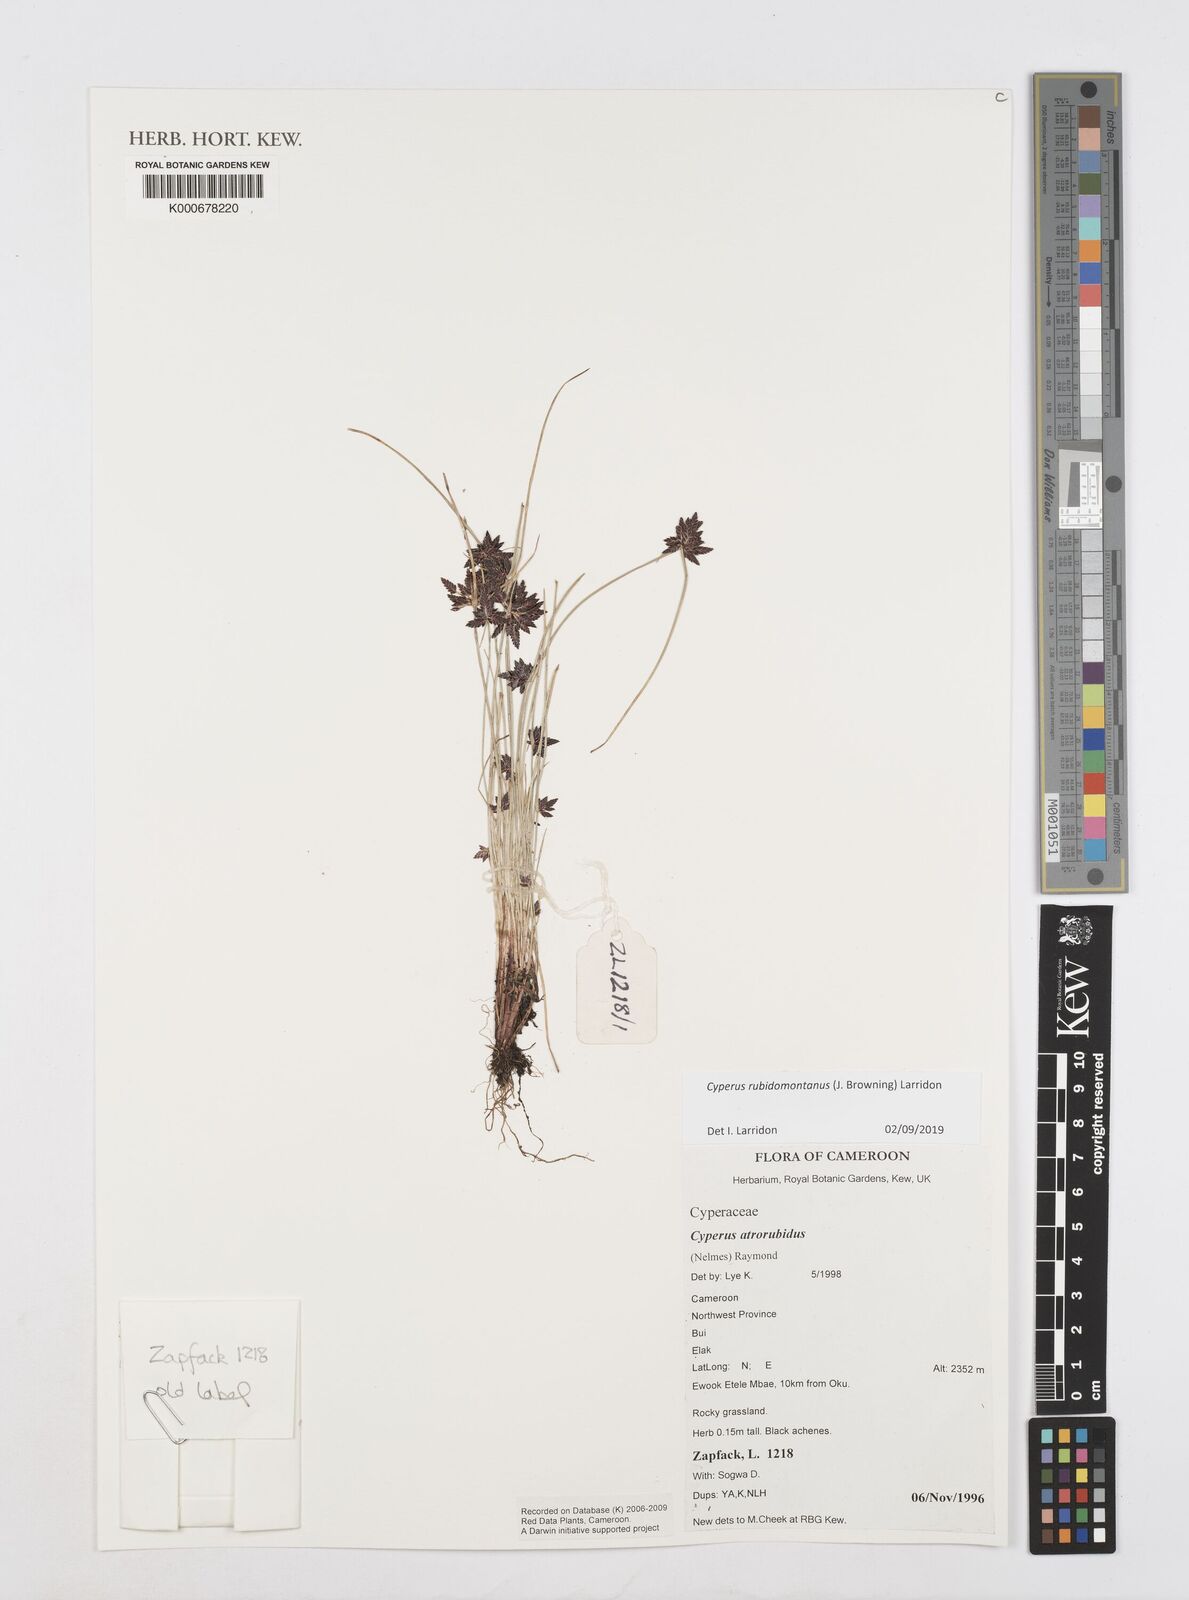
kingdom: Plantae
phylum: Tracheophyta
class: Liliopsida
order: Poales
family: Cyperaceae
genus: Cyperus
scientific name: Cyperus atrorubidus
